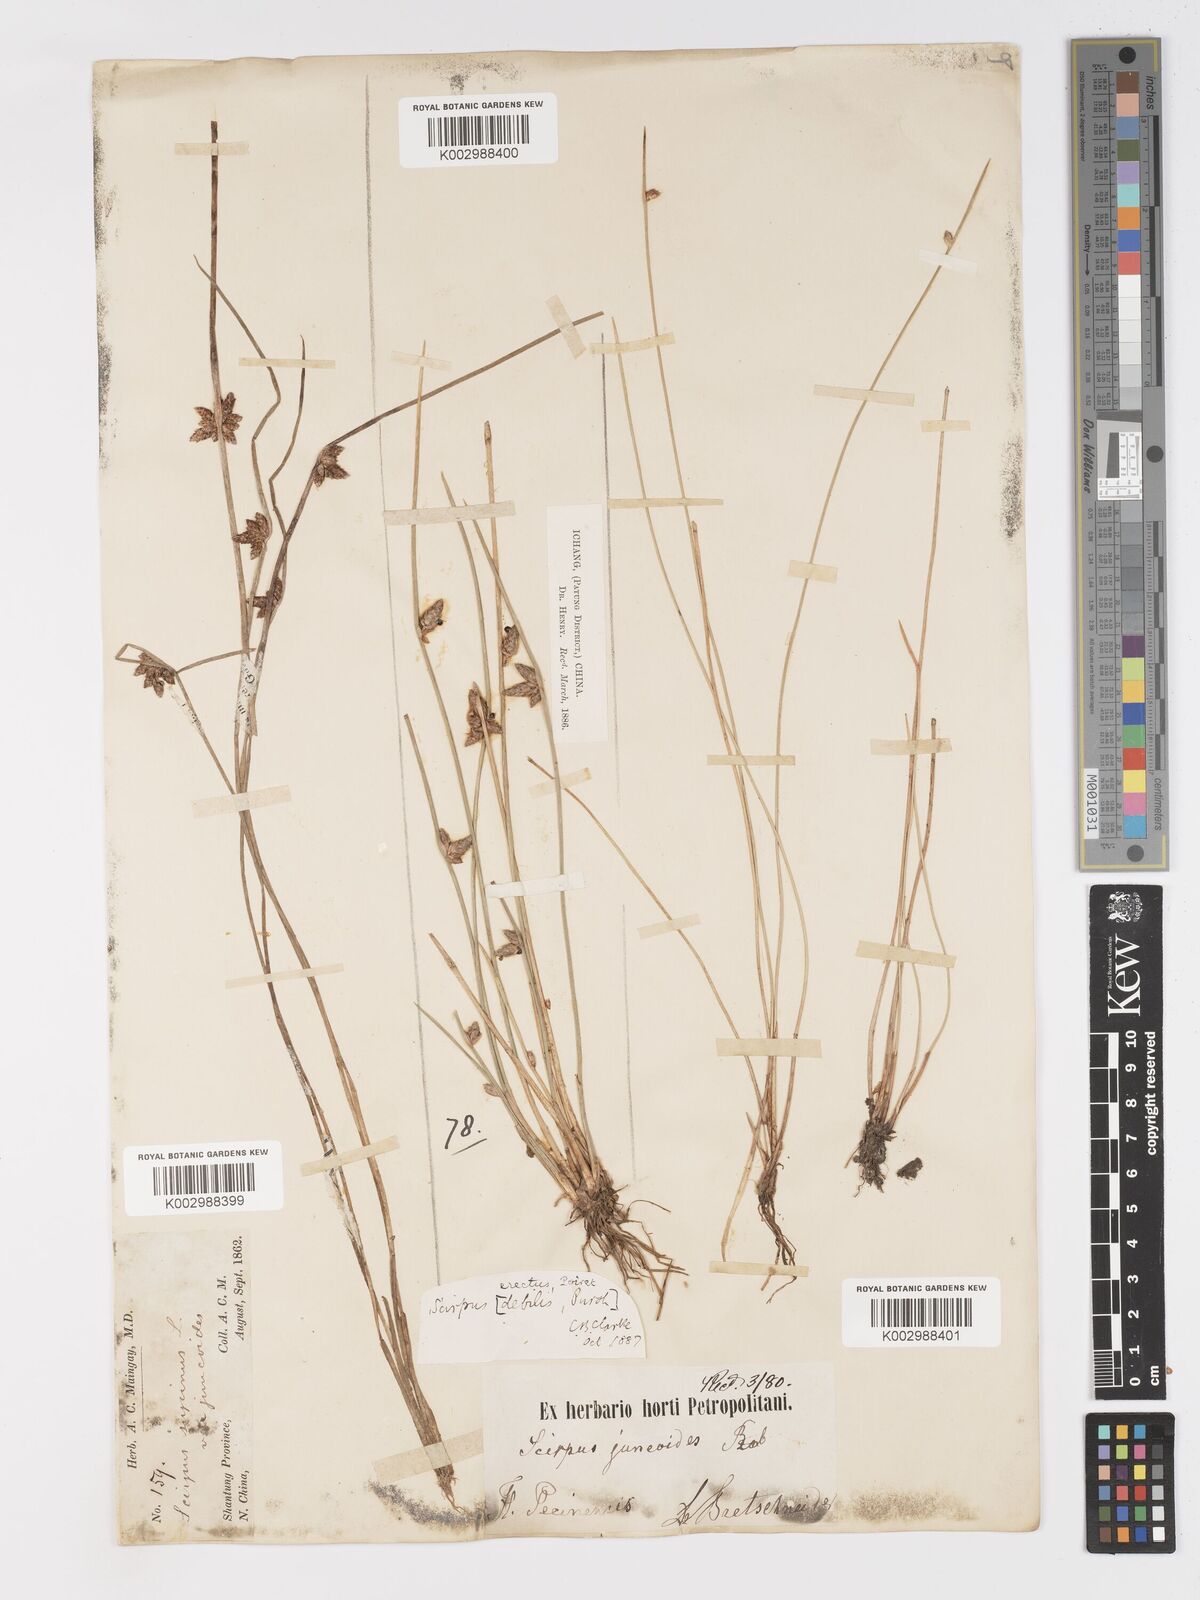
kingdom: Plantae
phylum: Tracheophyta
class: Liliopsida
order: Poales
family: Cyperaceae
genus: Schoenoplectiella
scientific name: Schoenoplectiella erecta
